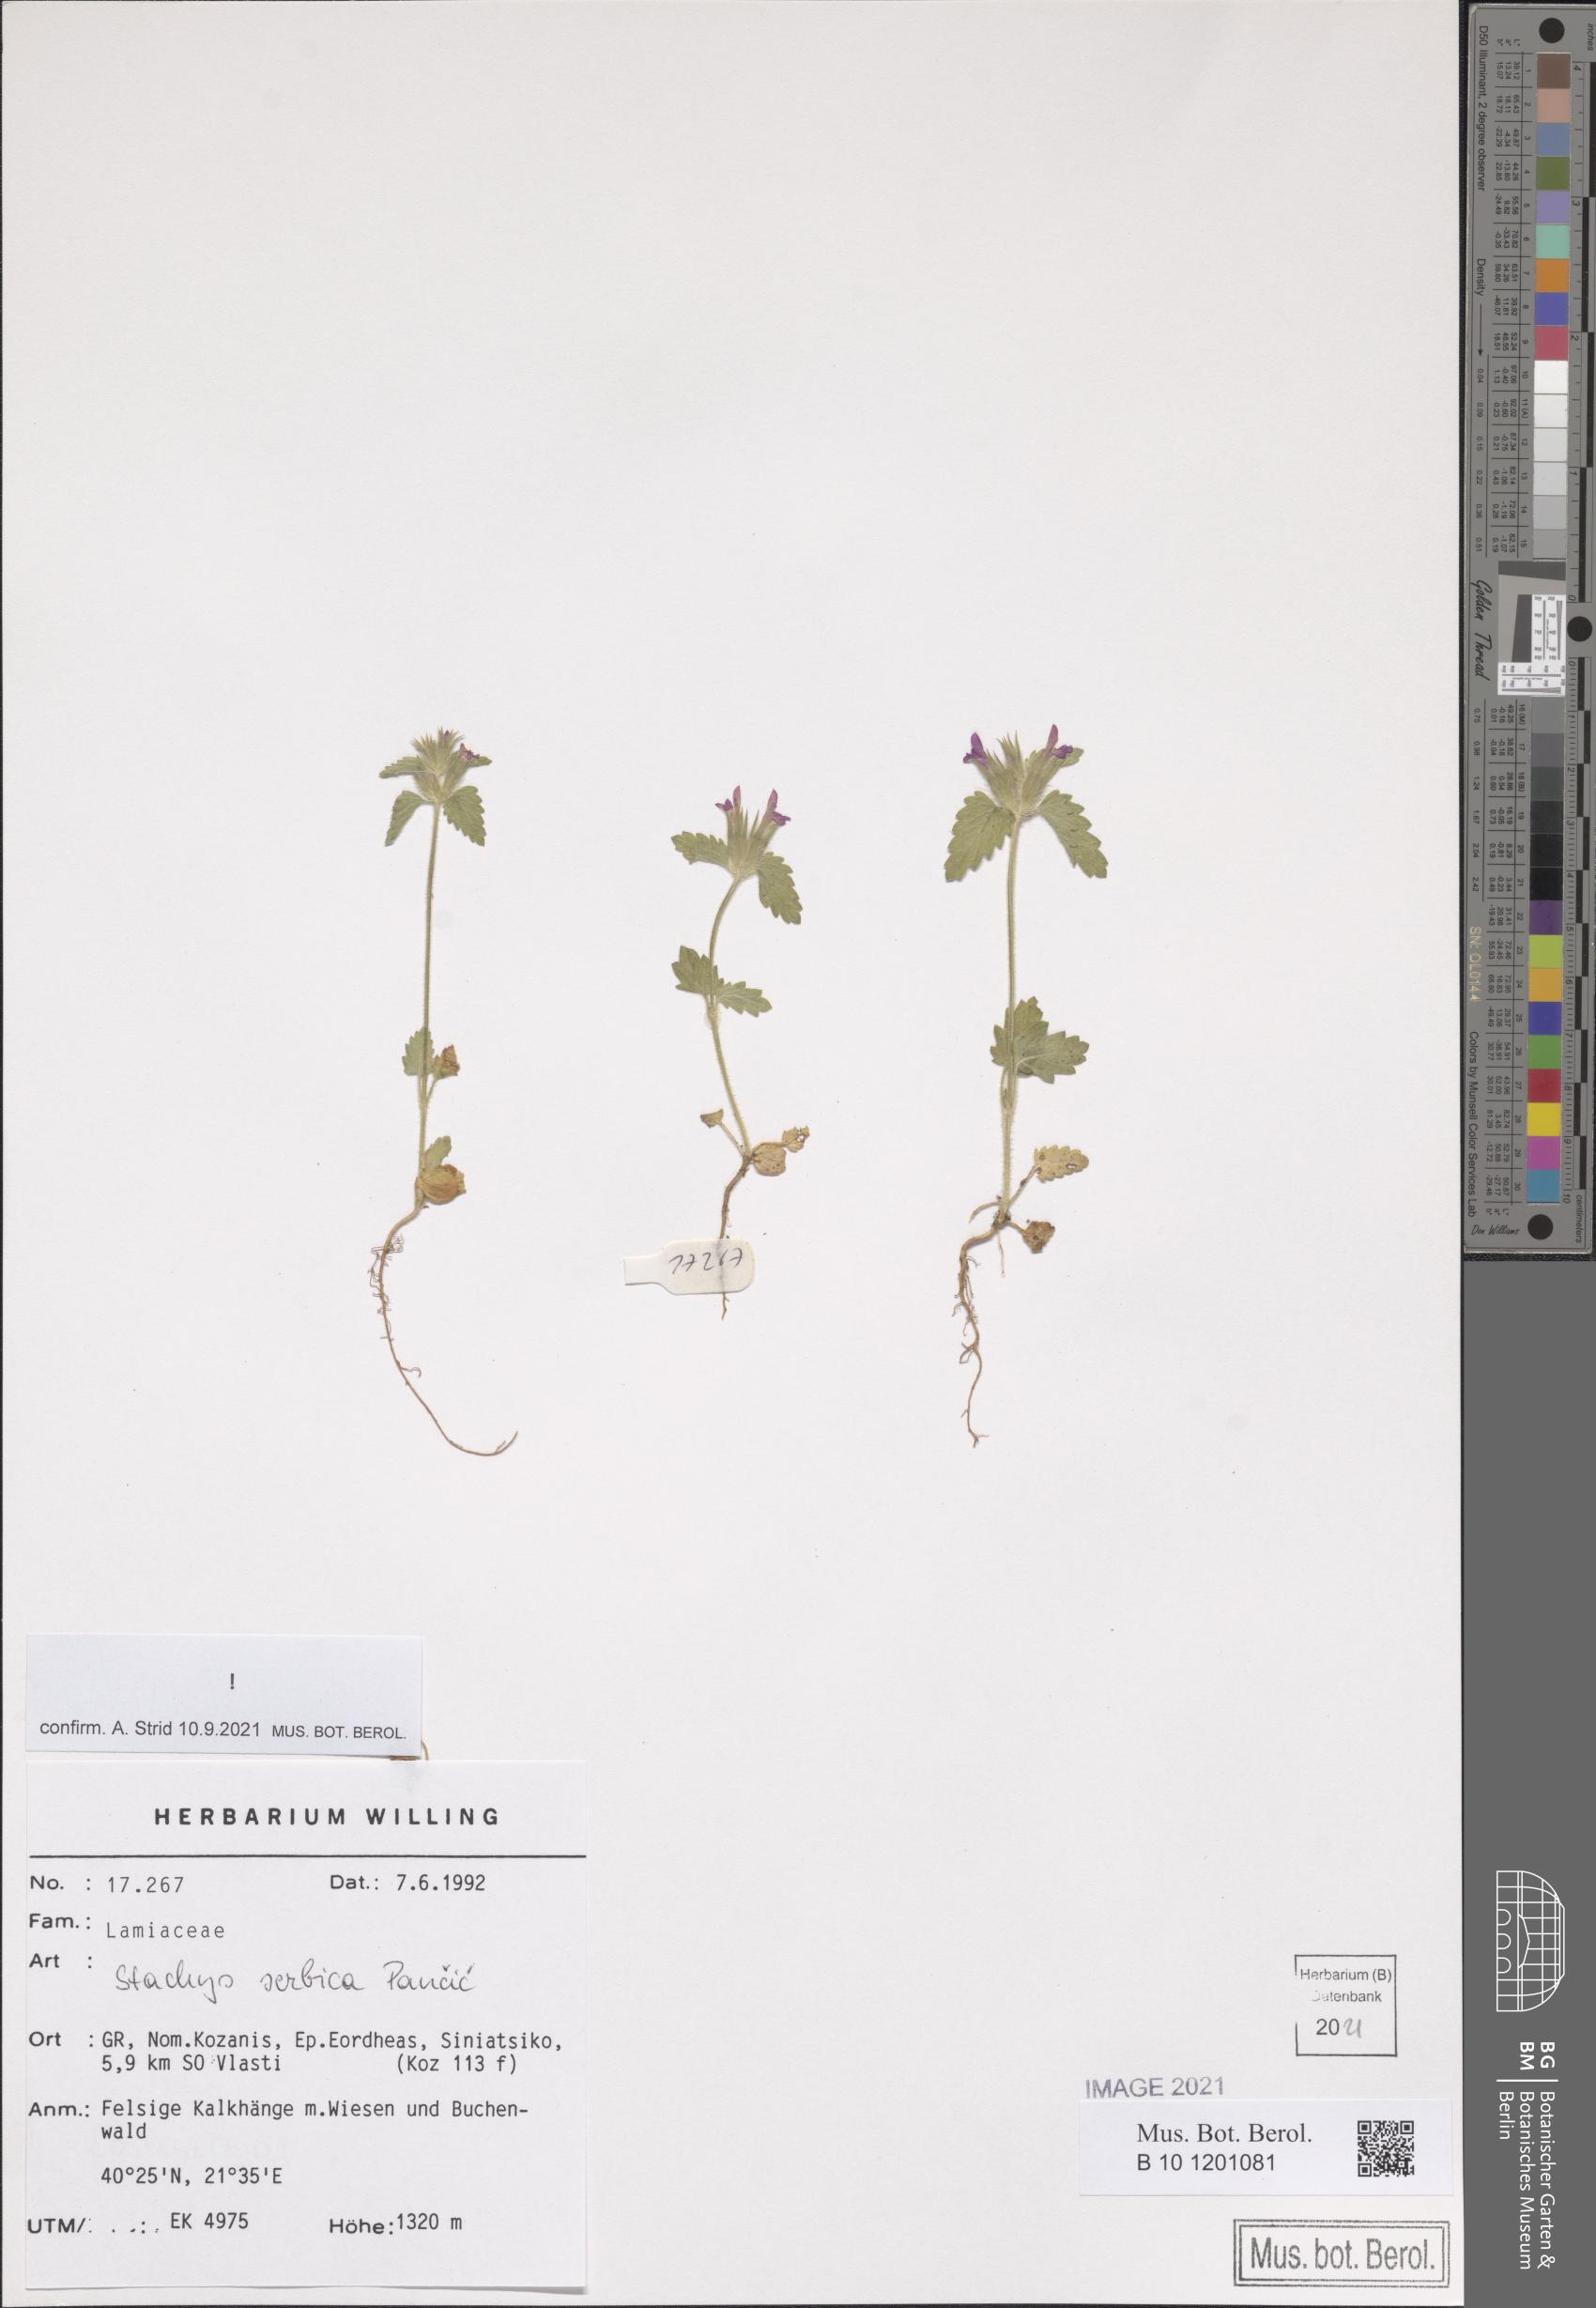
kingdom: Plantae
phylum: Tracheophyta
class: Magnoliopsida
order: Lamiales
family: Lamiaceae
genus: Stachys
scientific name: Stachys serbica
